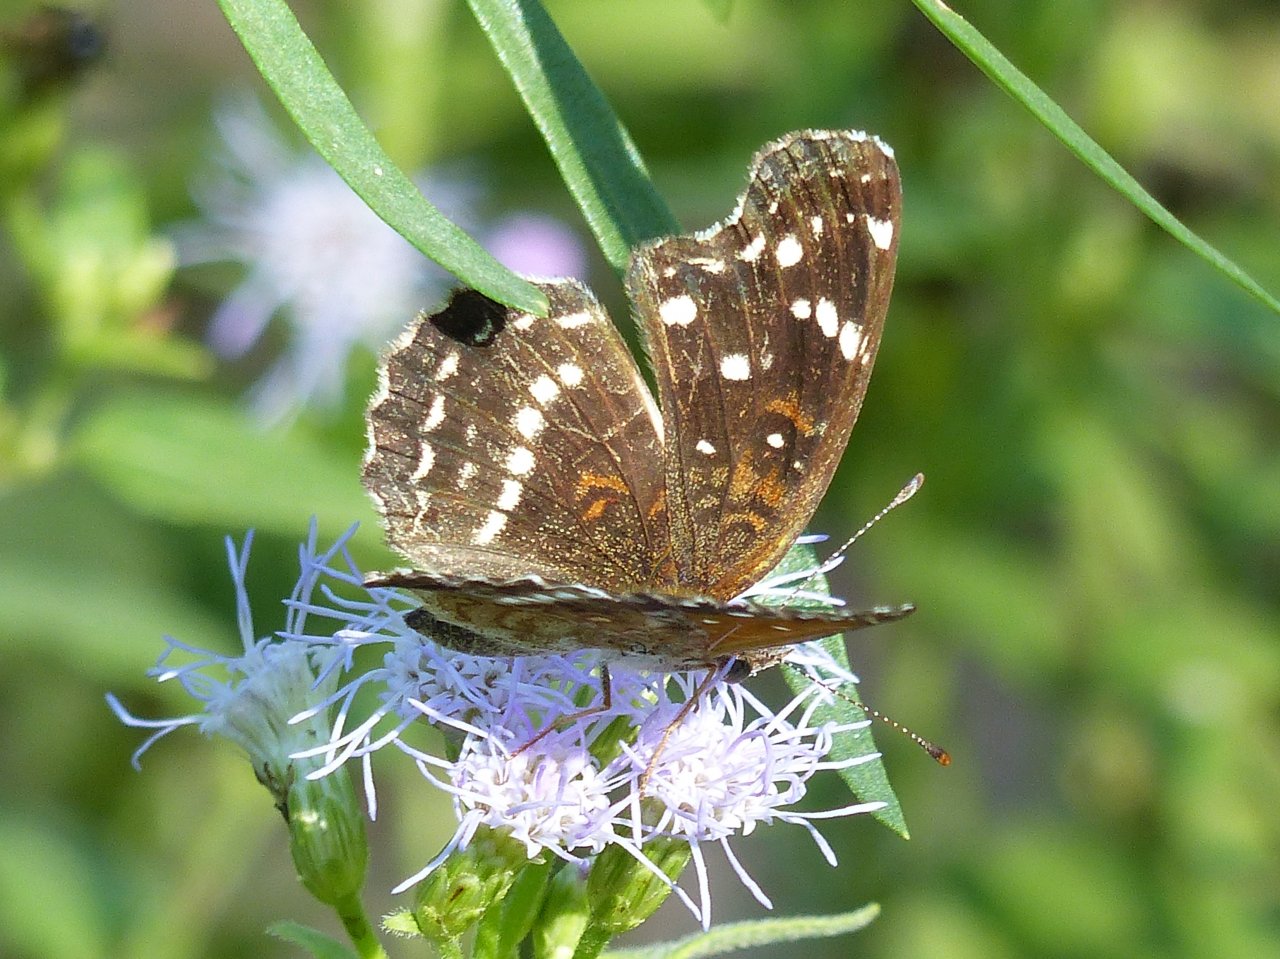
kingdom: Animalia
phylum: Arthropoda
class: Insecta
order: Lepidoptera
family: Nymphalidae
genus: Anthanassa
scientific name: Anthanassa texana
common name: Texan Crescent
